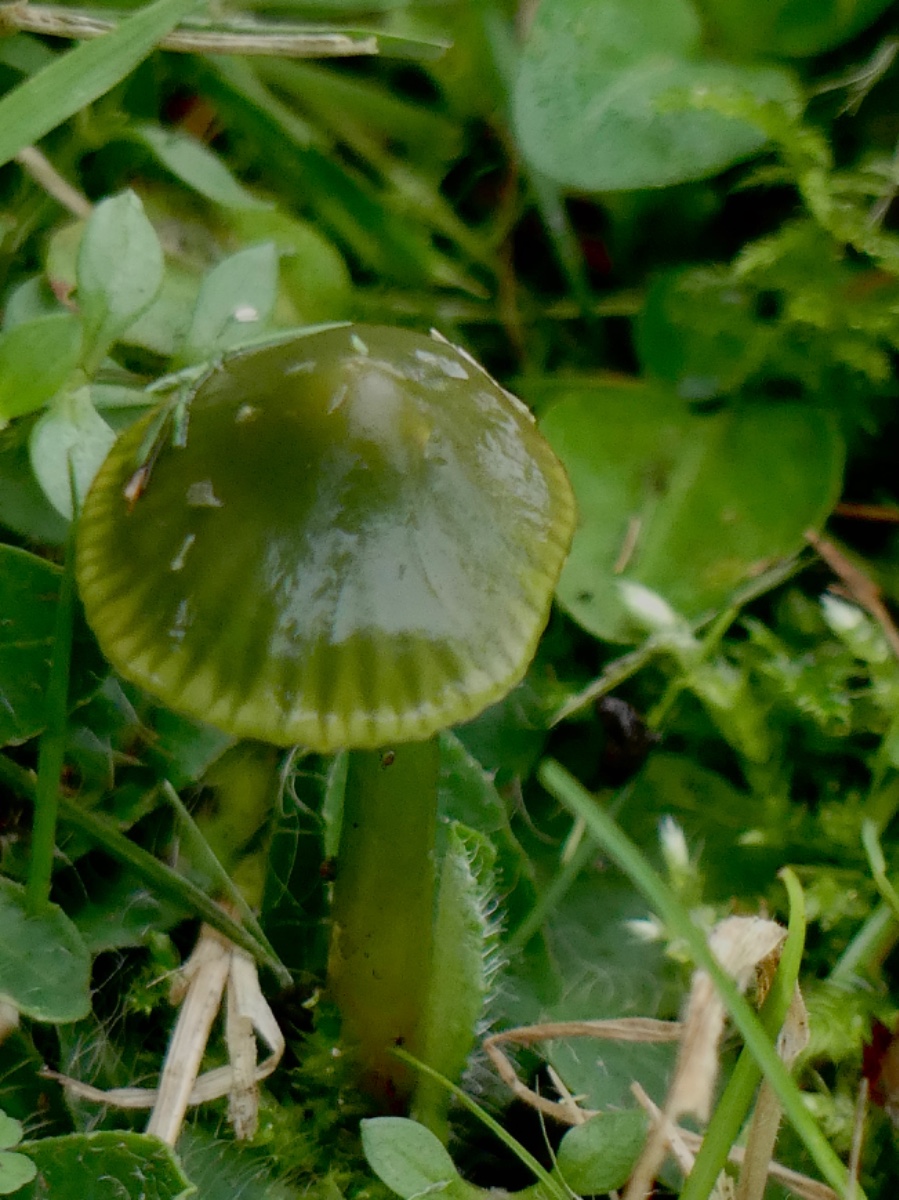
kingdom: Fungi
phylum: Basidiomycota
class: Agaricomycetes
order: Agaricales
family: Hygrophoraceae
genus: Gliophorus
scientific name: Gliophorus psittacinus
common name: papegøje-vokshat
